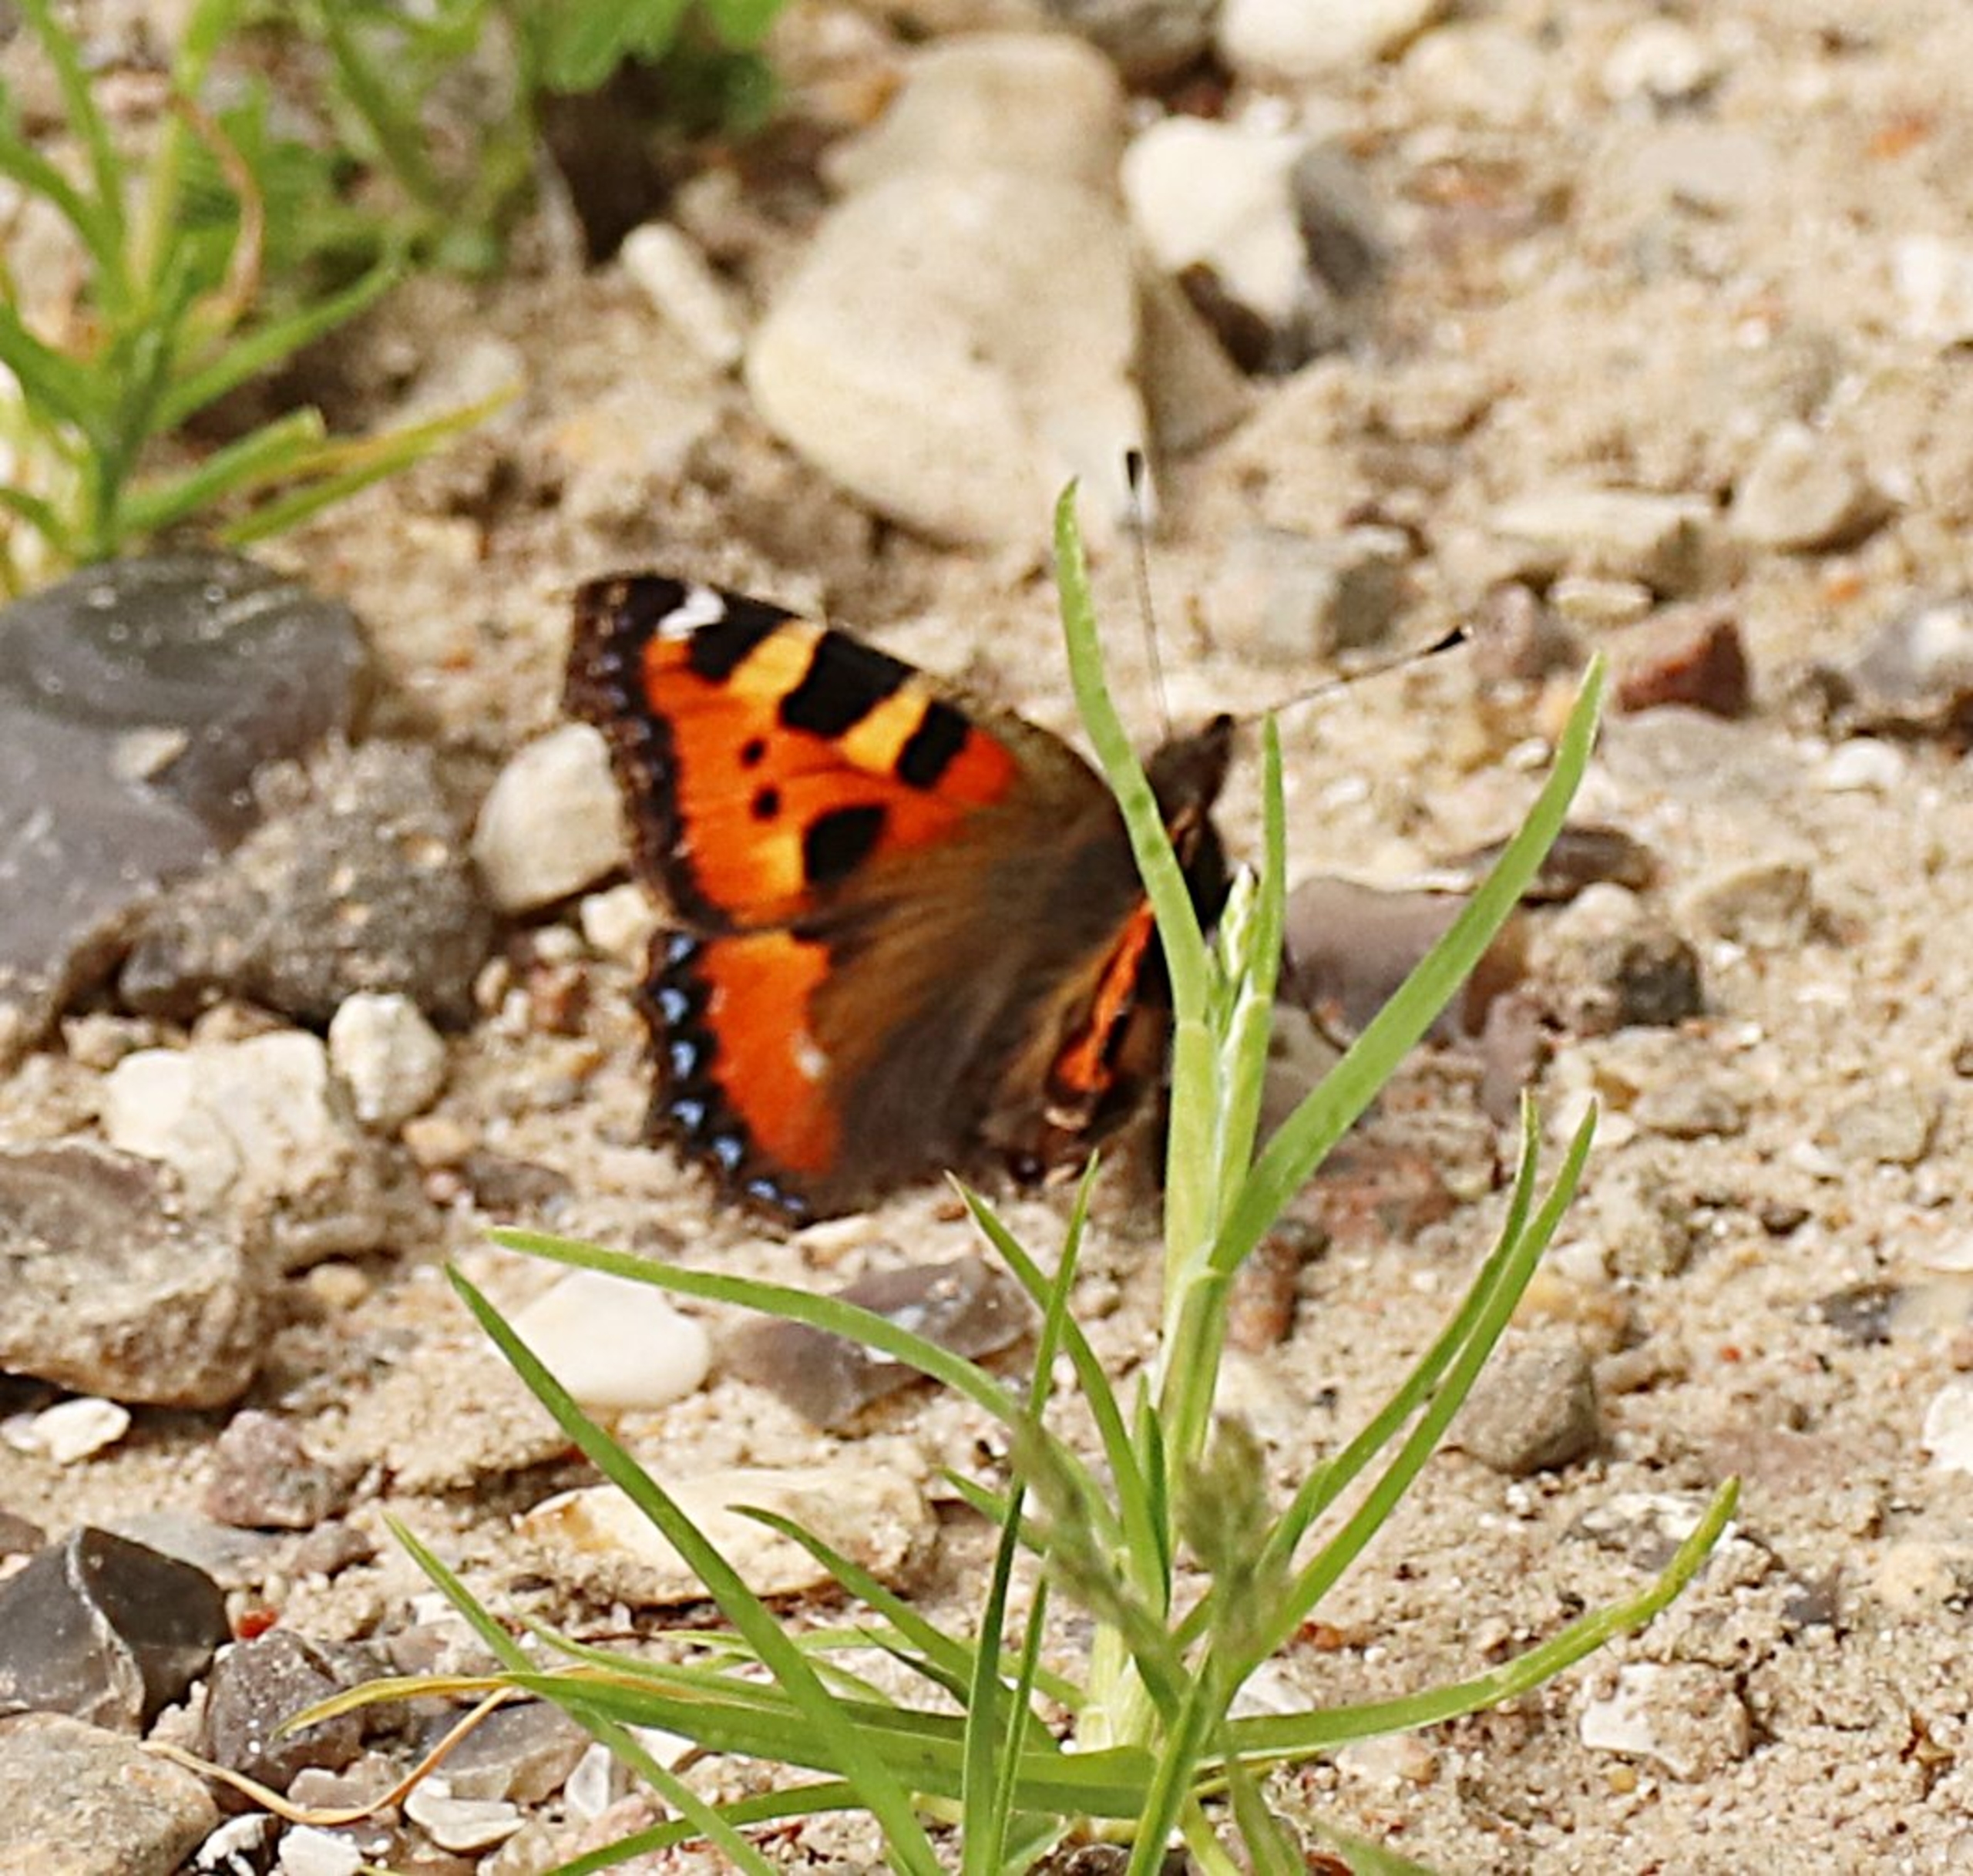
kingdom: Animalia
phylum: Arthropoda
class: Insecta
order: Lepidoptera
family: Nymphalidae
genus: Aglais
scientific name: Aglais urticae
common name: Nældens takvinge
